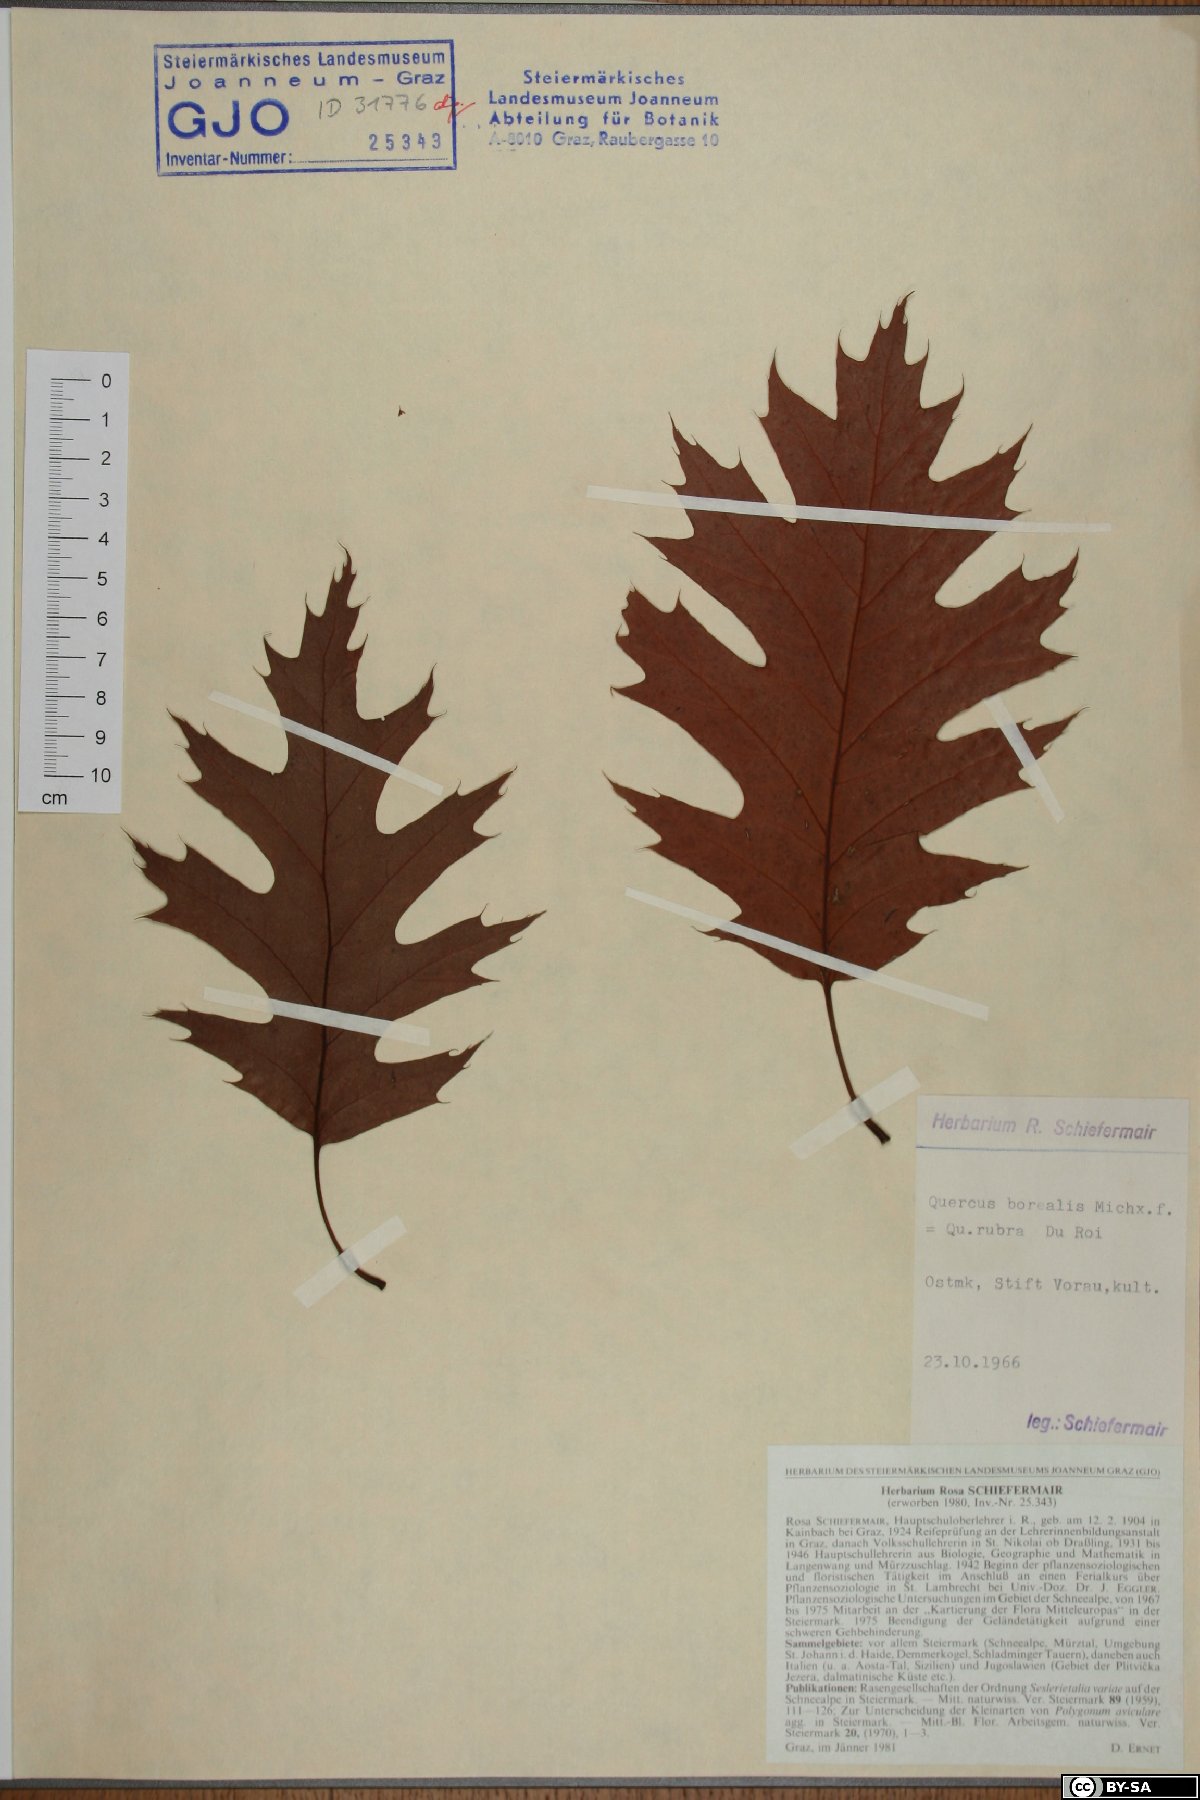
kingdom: Plantae
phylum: Tracheophyta
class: Magnoliopsida
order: Fagales
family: Fagaceae
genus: Quercus
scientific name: Quercus rubra
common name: Red oak
